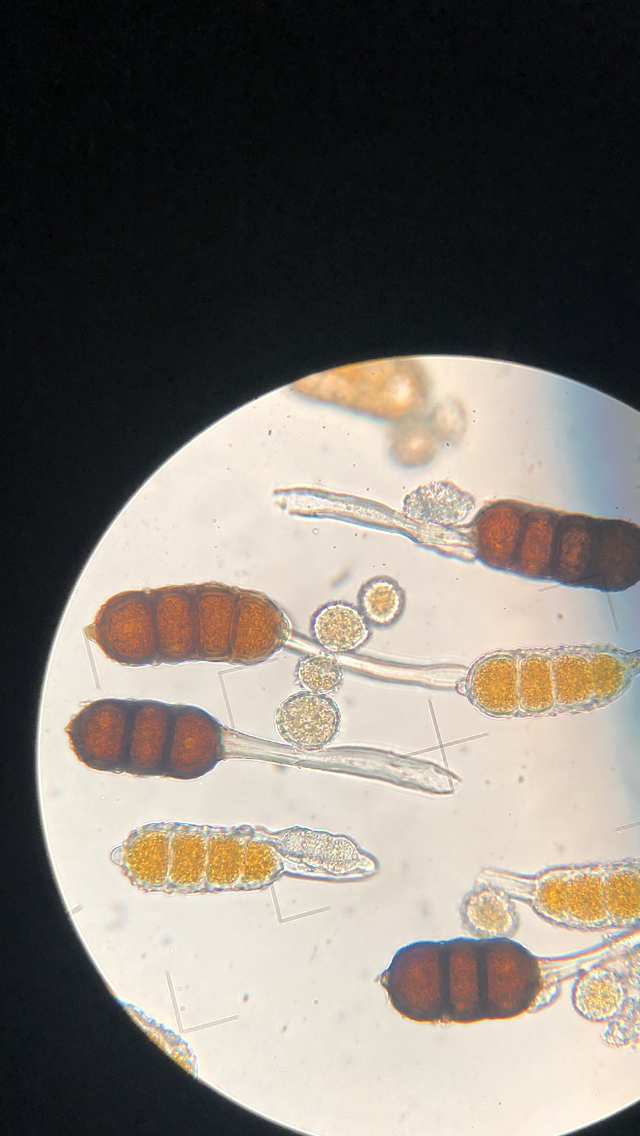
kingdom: Fungi
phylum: Basidiomycota
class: Pucciniomycetes
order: Pucciniales
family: Phragmidiaceae
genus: Phragmidium
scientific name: Phragmidium violaceum
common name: violet flercellerust
